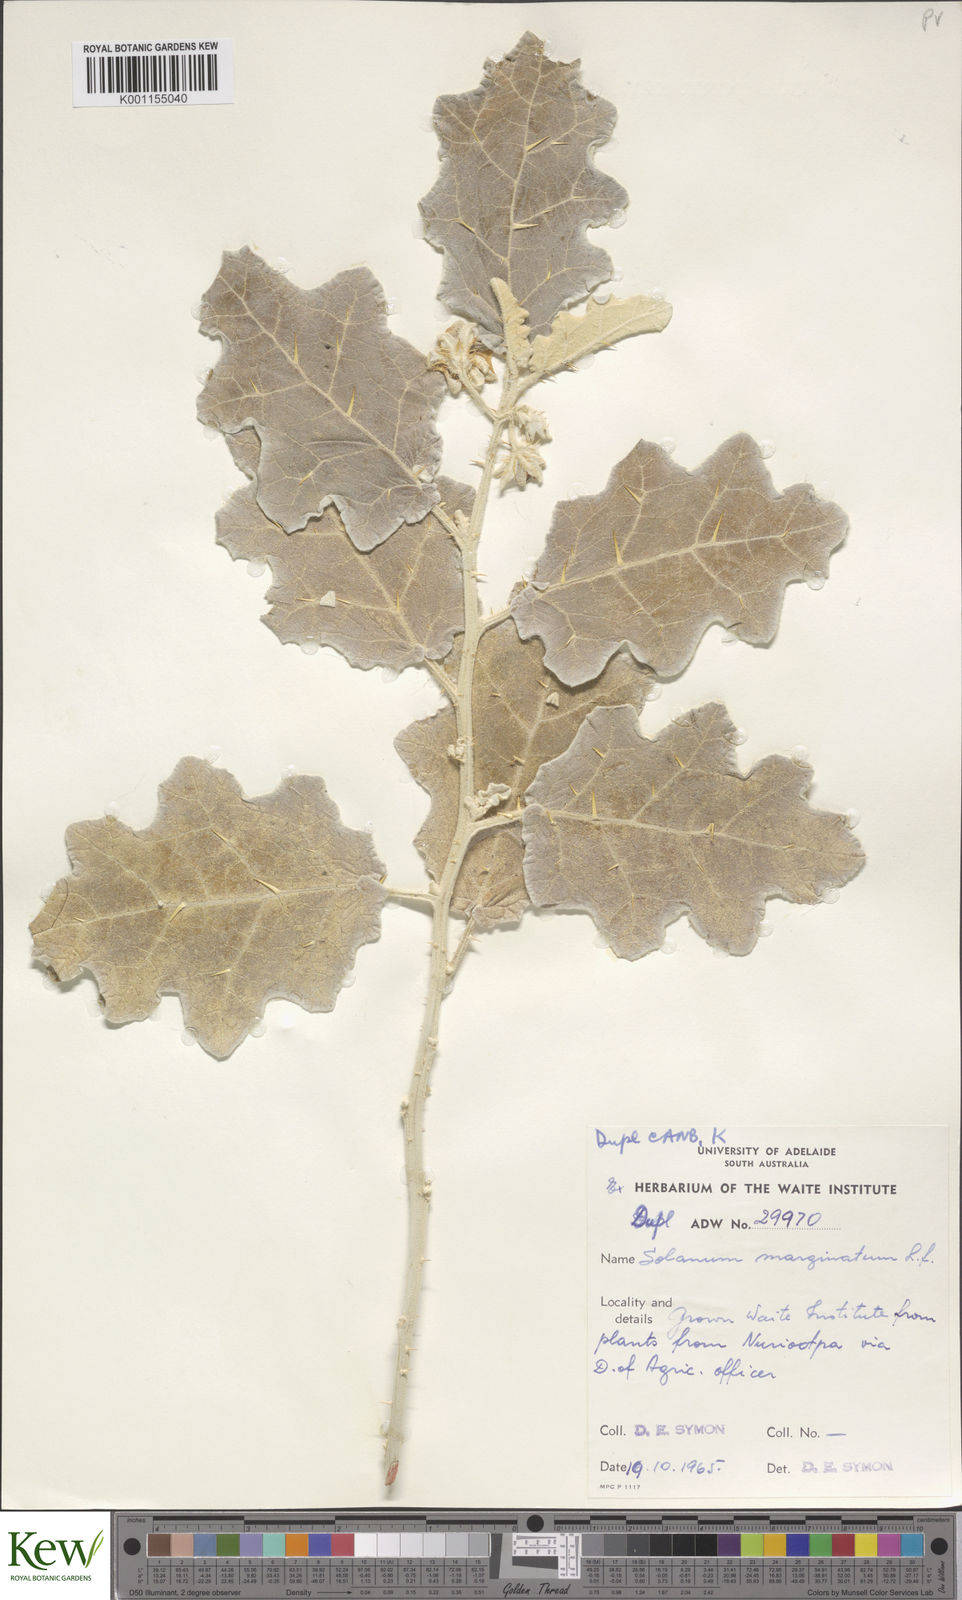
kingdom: Plantae
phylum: Tracheophyta
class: Magnoliopsida
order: Solanales
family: Solanaceae
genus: Solanum
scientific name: Solanum marginatum
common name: Purple african nightshade
